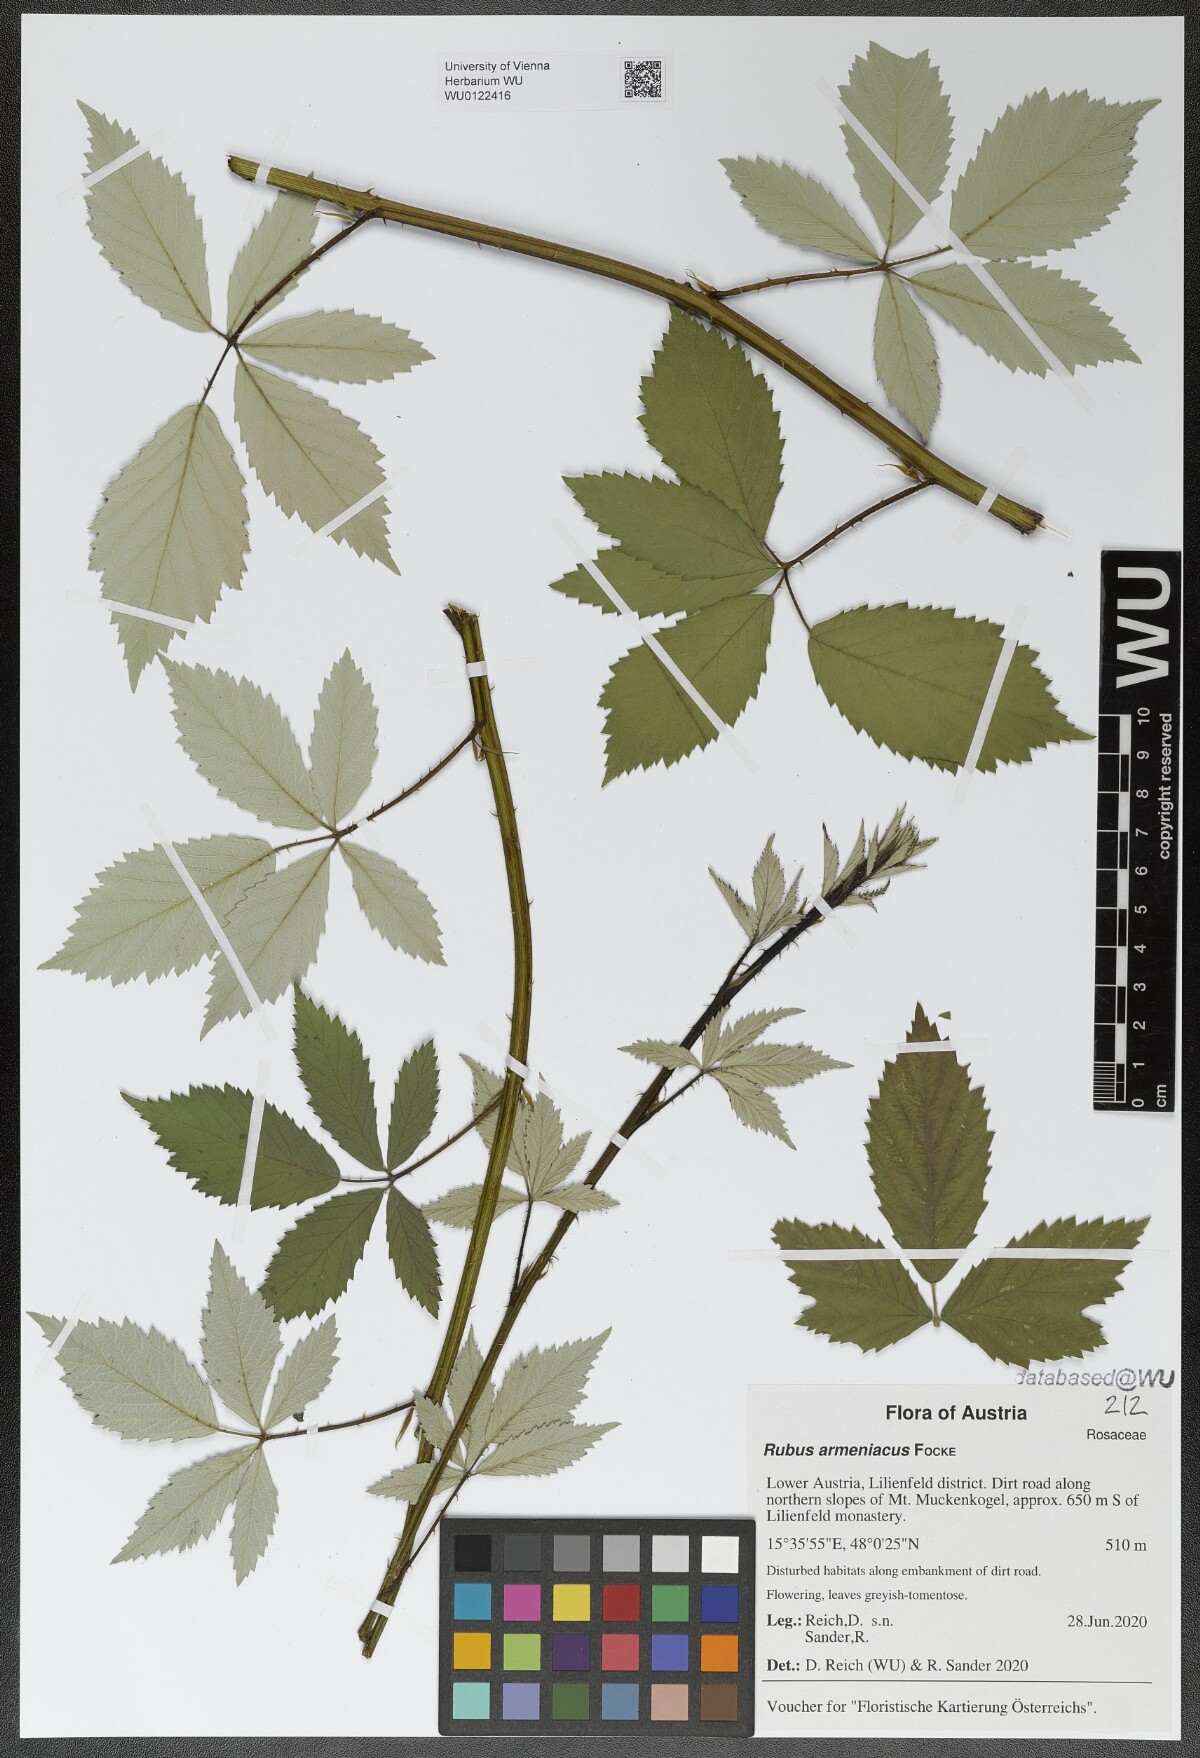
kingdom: Plantae
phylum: Tracheophyta
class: Magnoliopsida
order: Rosales
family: Rosaceae
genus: Rubus
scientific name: Rubus armeniacus
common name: Himalayan blackberry
